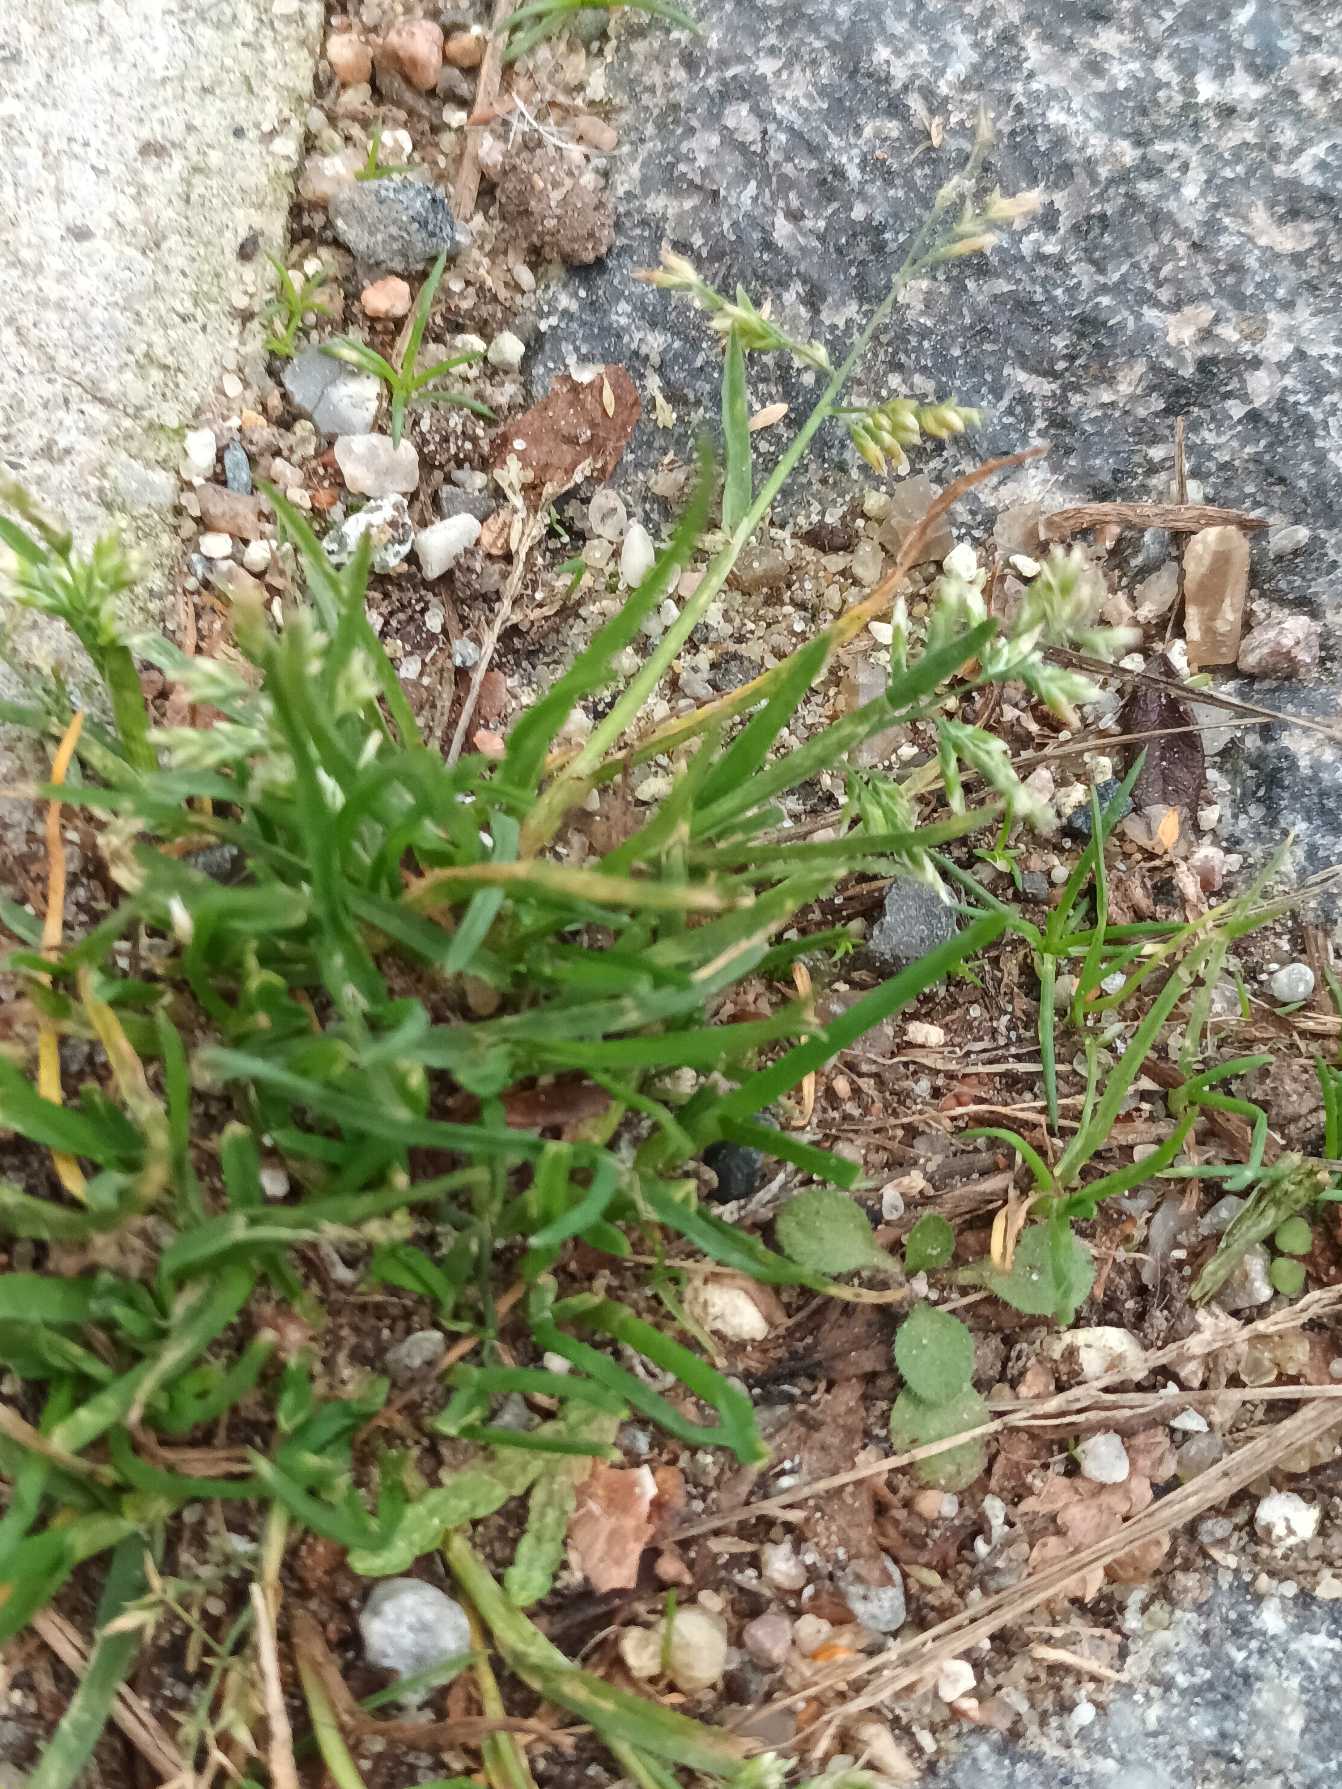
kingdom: Plantae
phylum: Tracheophyta
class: Liliopsida
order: Poales
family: Poaceae
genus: Poa
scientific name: Poa annua
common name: Enårig rapgræs
